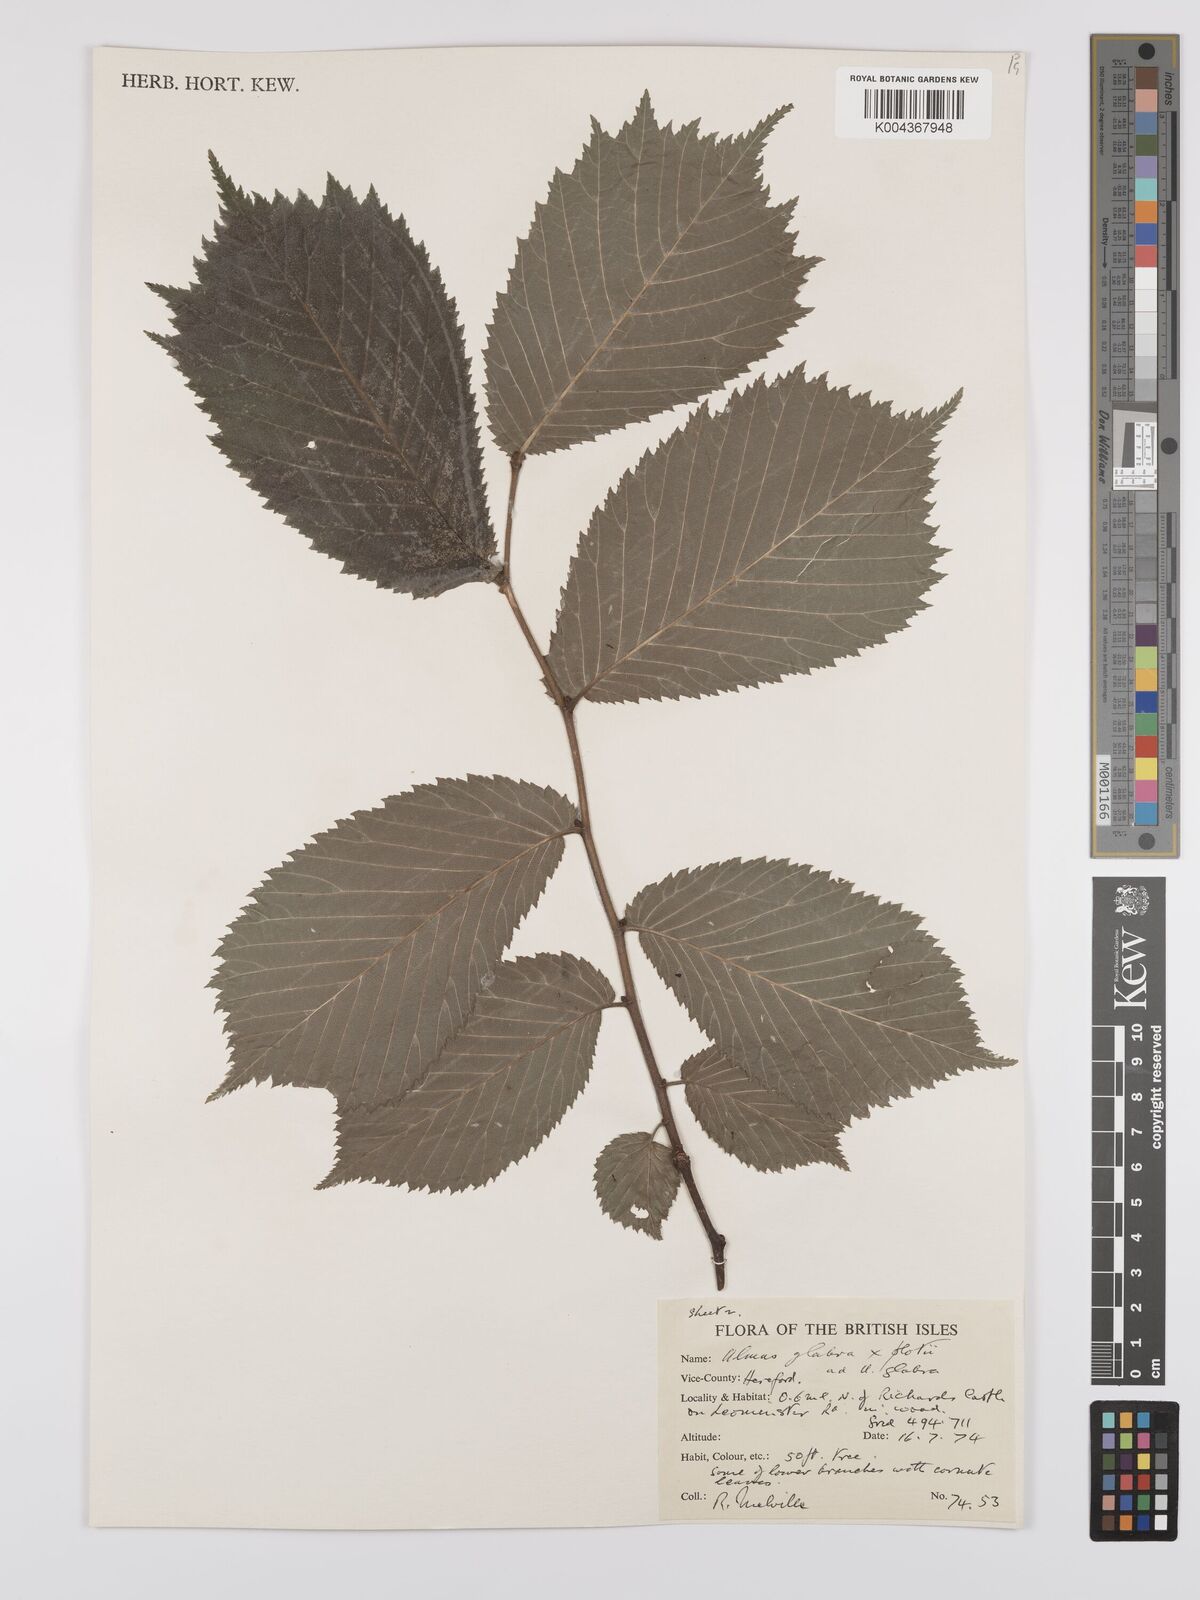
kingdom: Plantae
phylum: Tracheophyta
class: Magnoliopsida
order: Rosales
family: Ulmaceae
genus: Ulmus
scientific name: Ulmus glabra
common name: Wych elm
